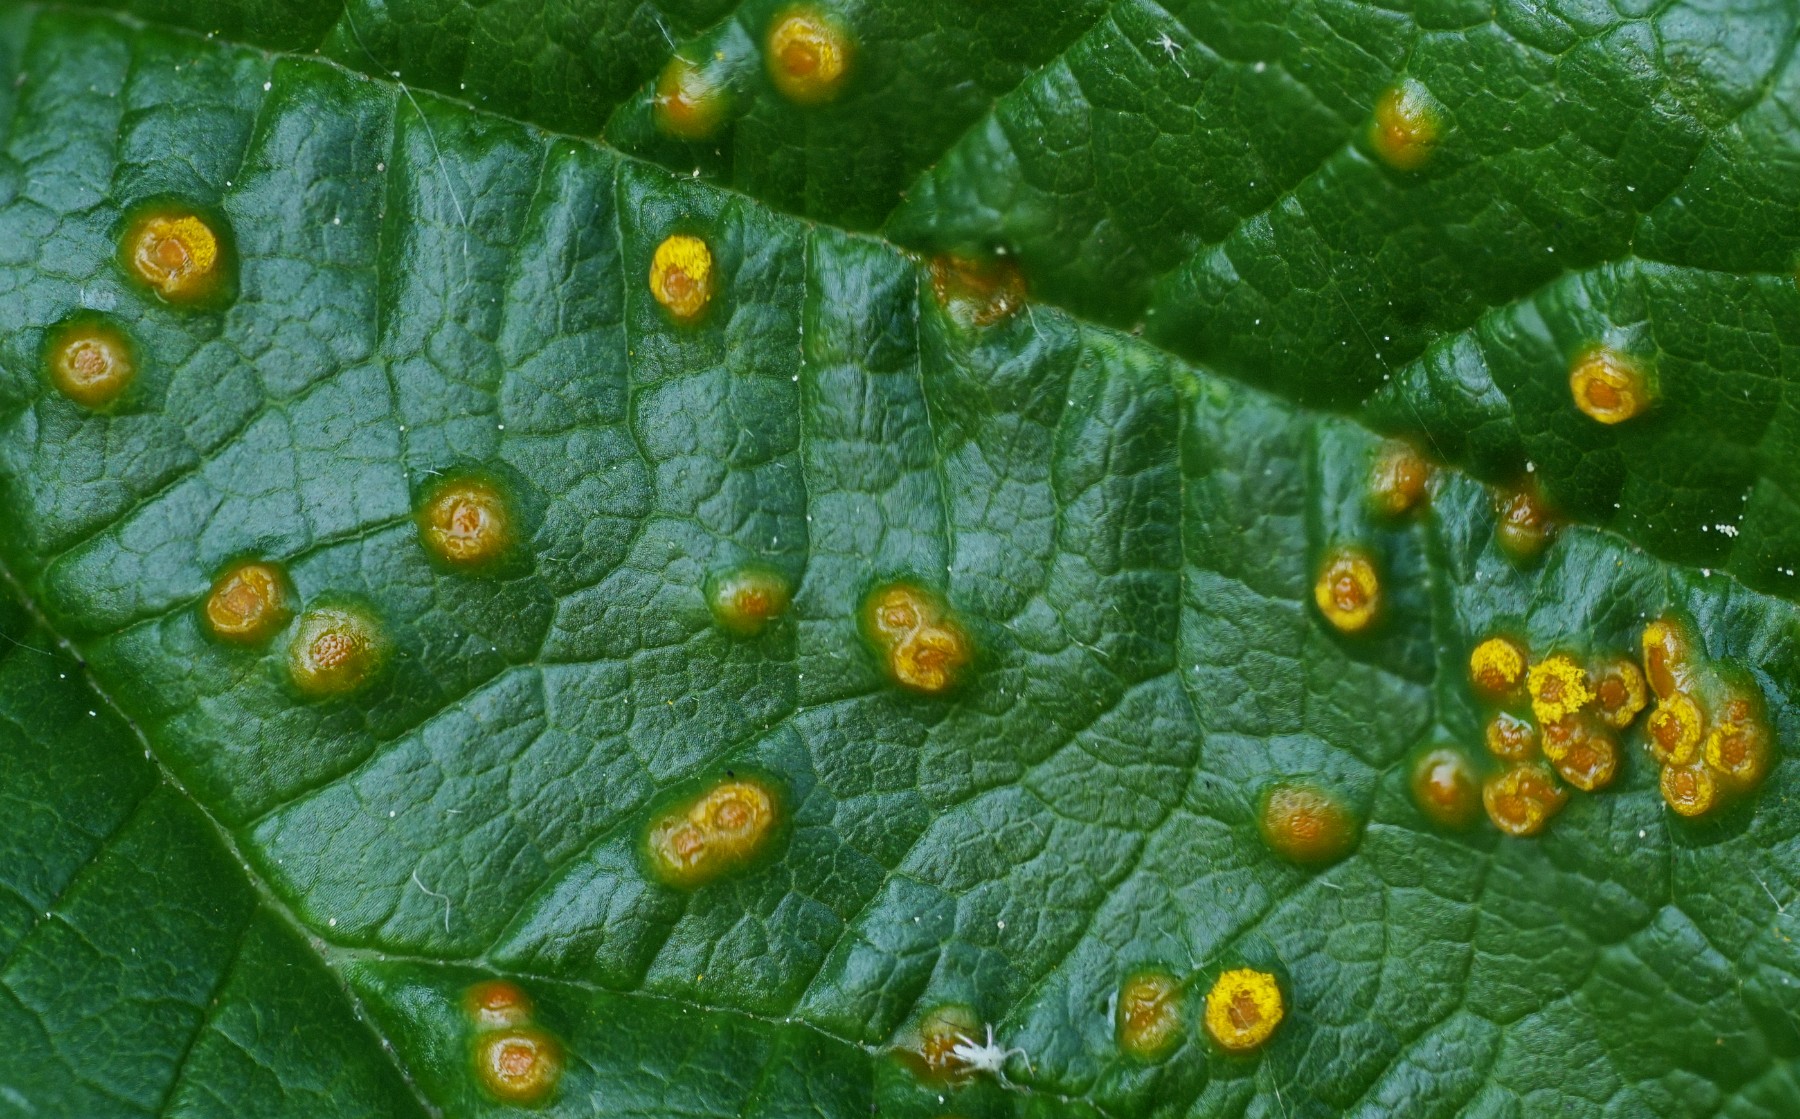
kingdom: Fungi
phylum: Basidiomycota
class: Pucciniomycetes
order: Pucciniales
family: Phragmidiaceae
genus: Kuehneola
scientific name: Kuehneola uredinis
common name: klynger-kædecellerust
